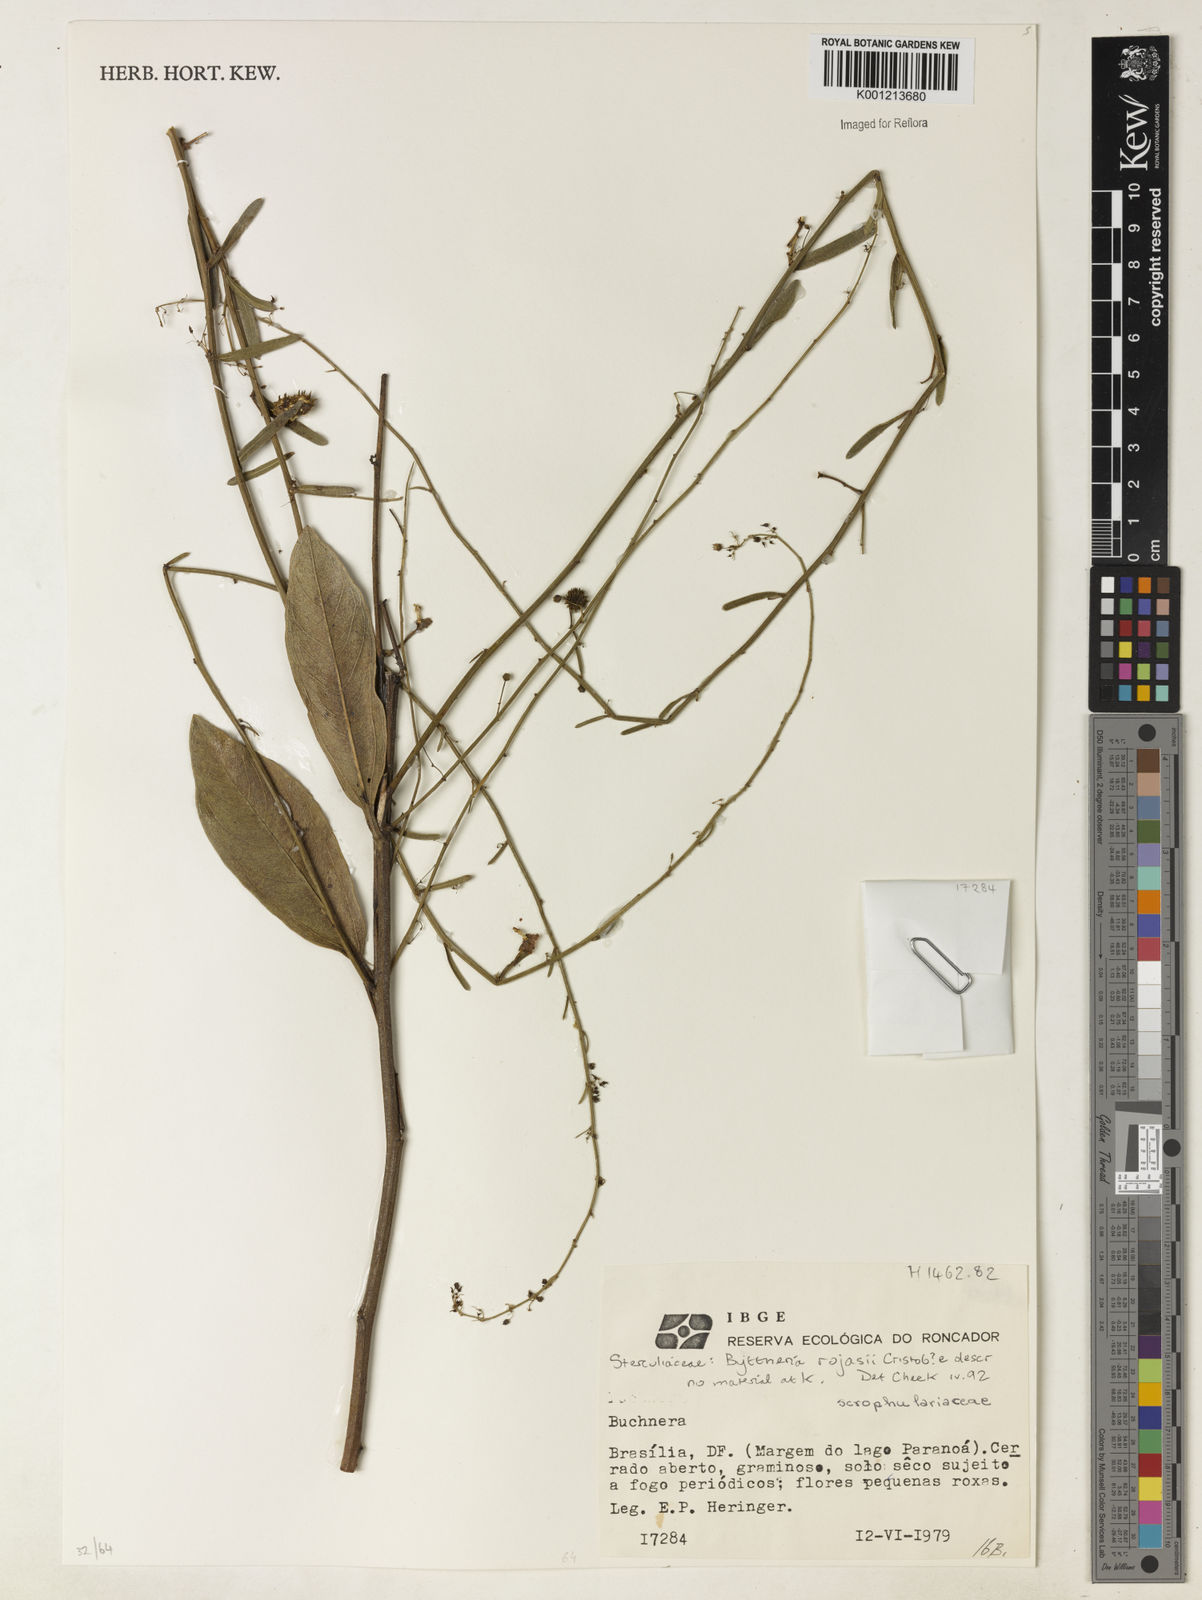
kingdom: Plantae
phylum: Tracheophyta
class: Magnoliopsida
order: Malvales
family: Malvaceae
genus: Byttneria
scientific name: Byttneria
